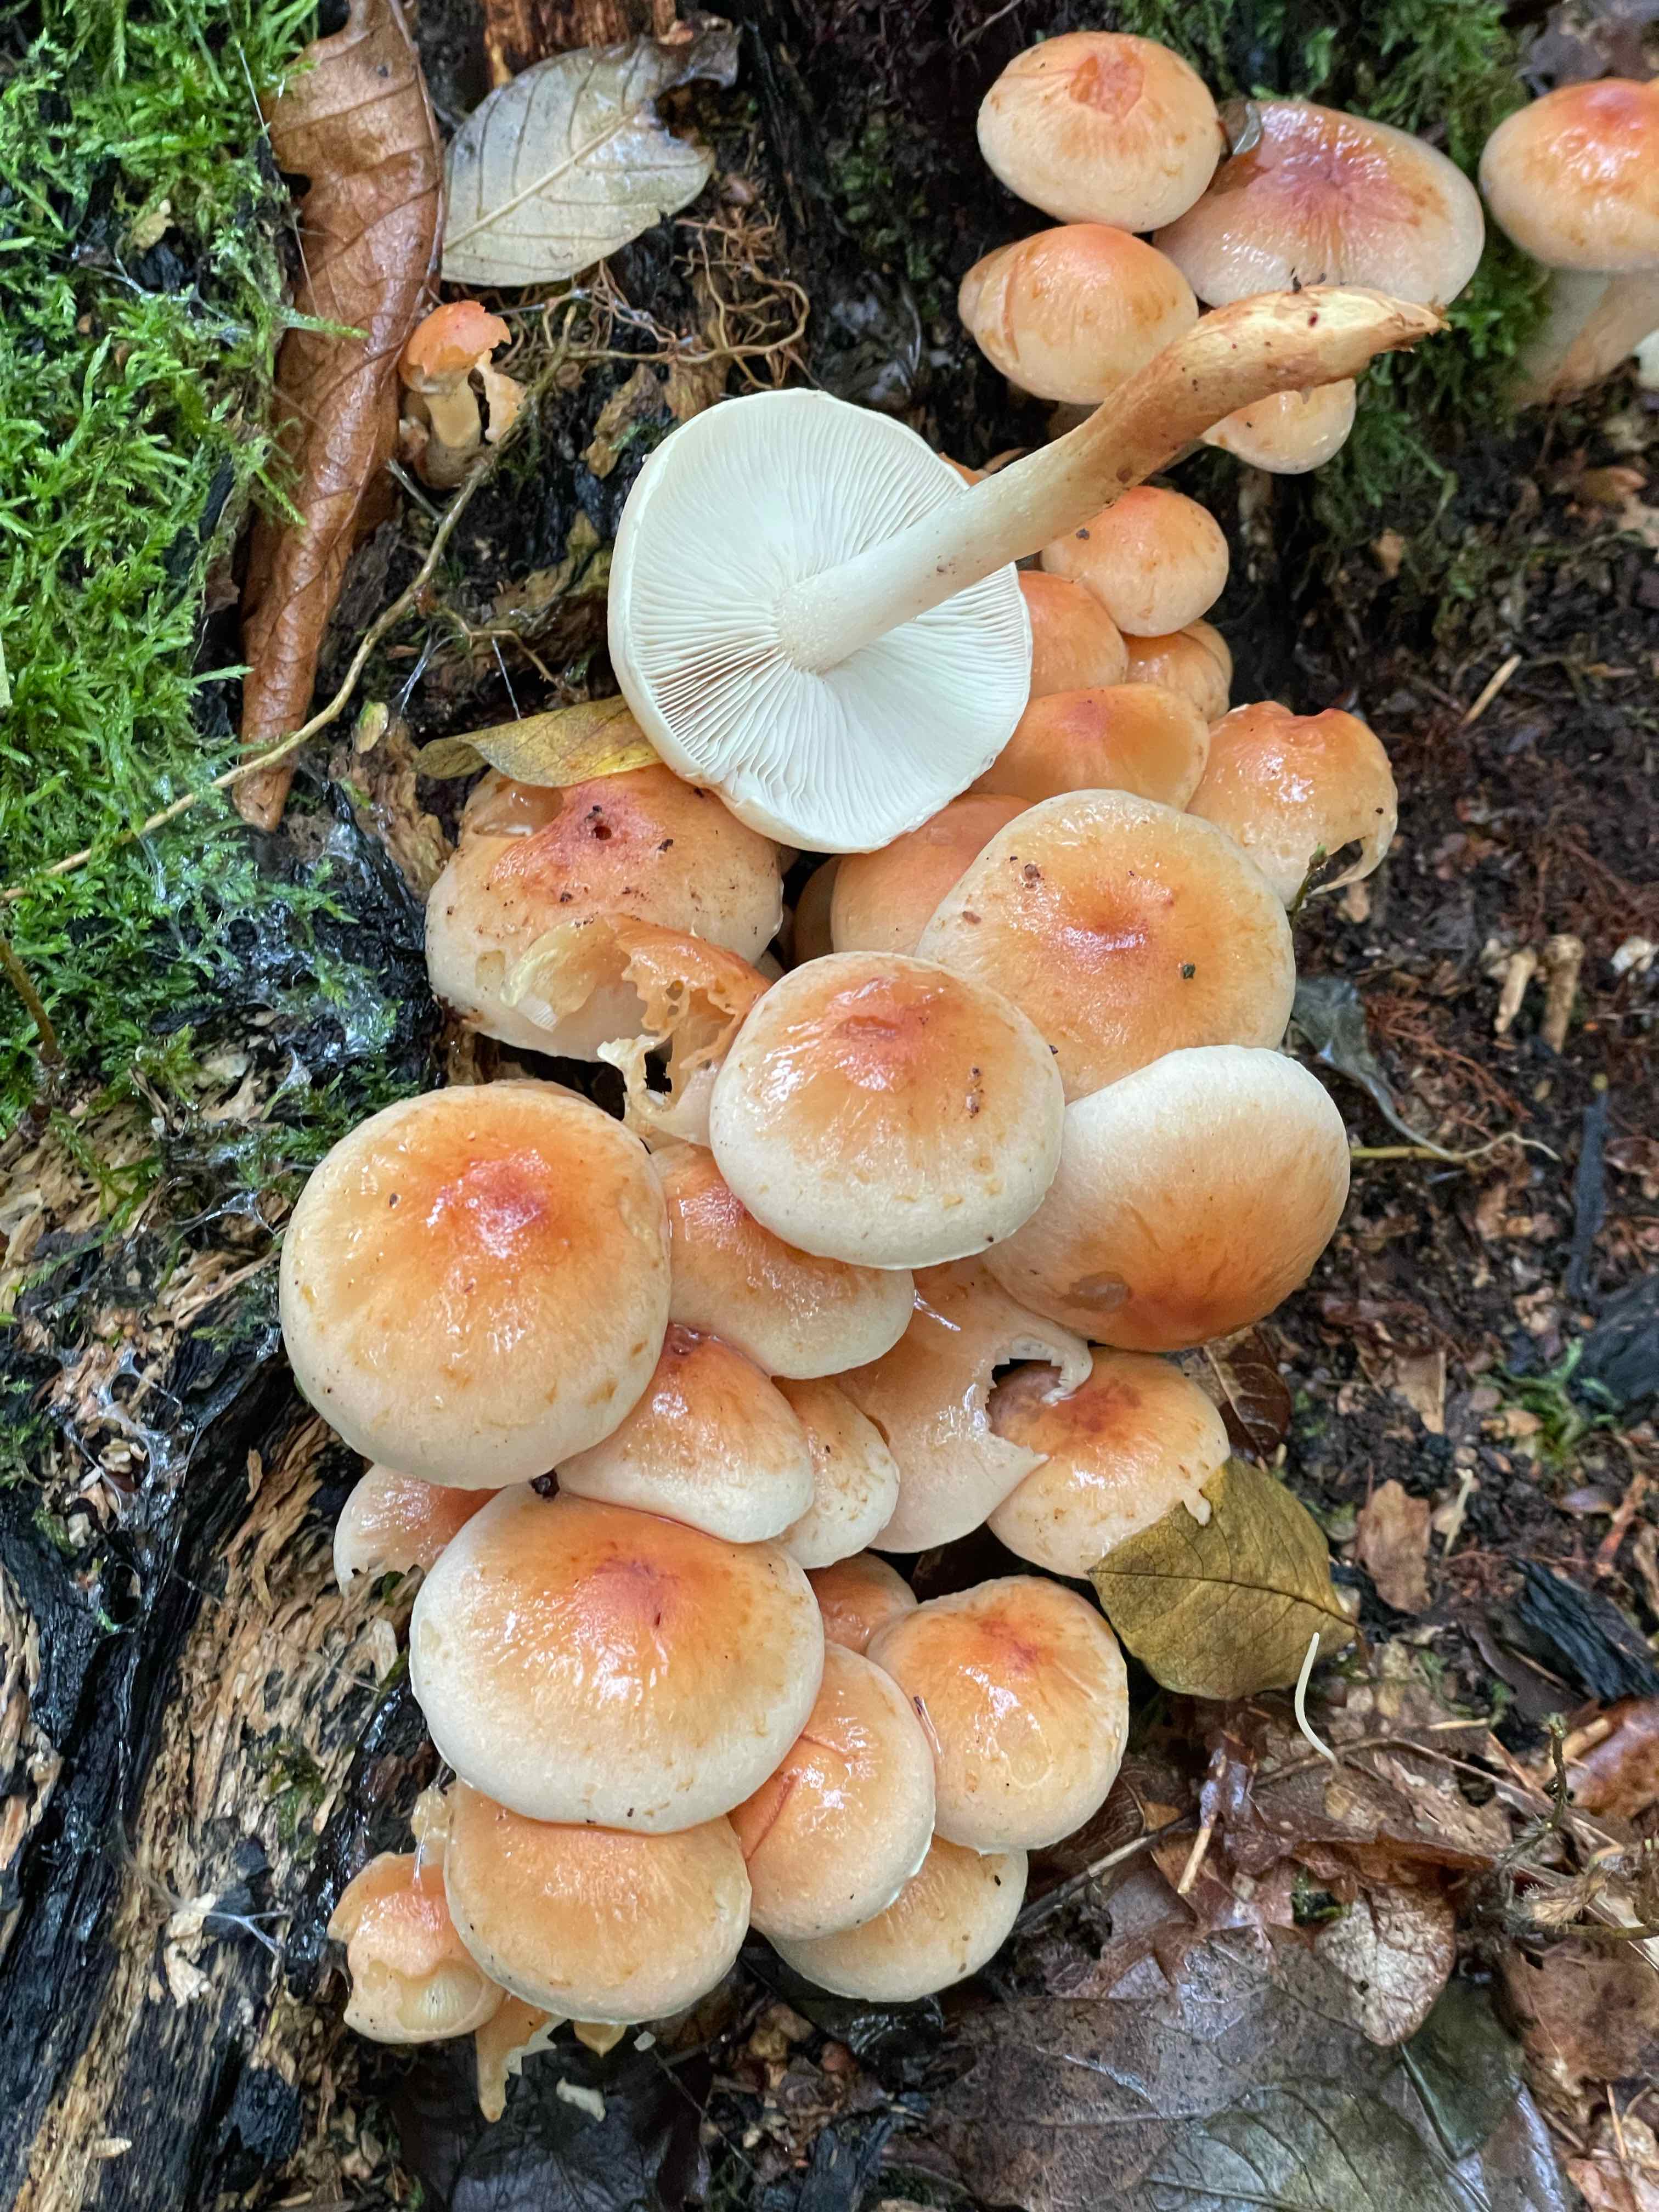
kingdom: Fungi
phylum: Basidiomycota
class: Agaricomycetes
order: Agaricales
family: Strophariaceae
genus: Hypholoma
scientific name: Hypholoma lateritium
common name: teglrød svovlhat
